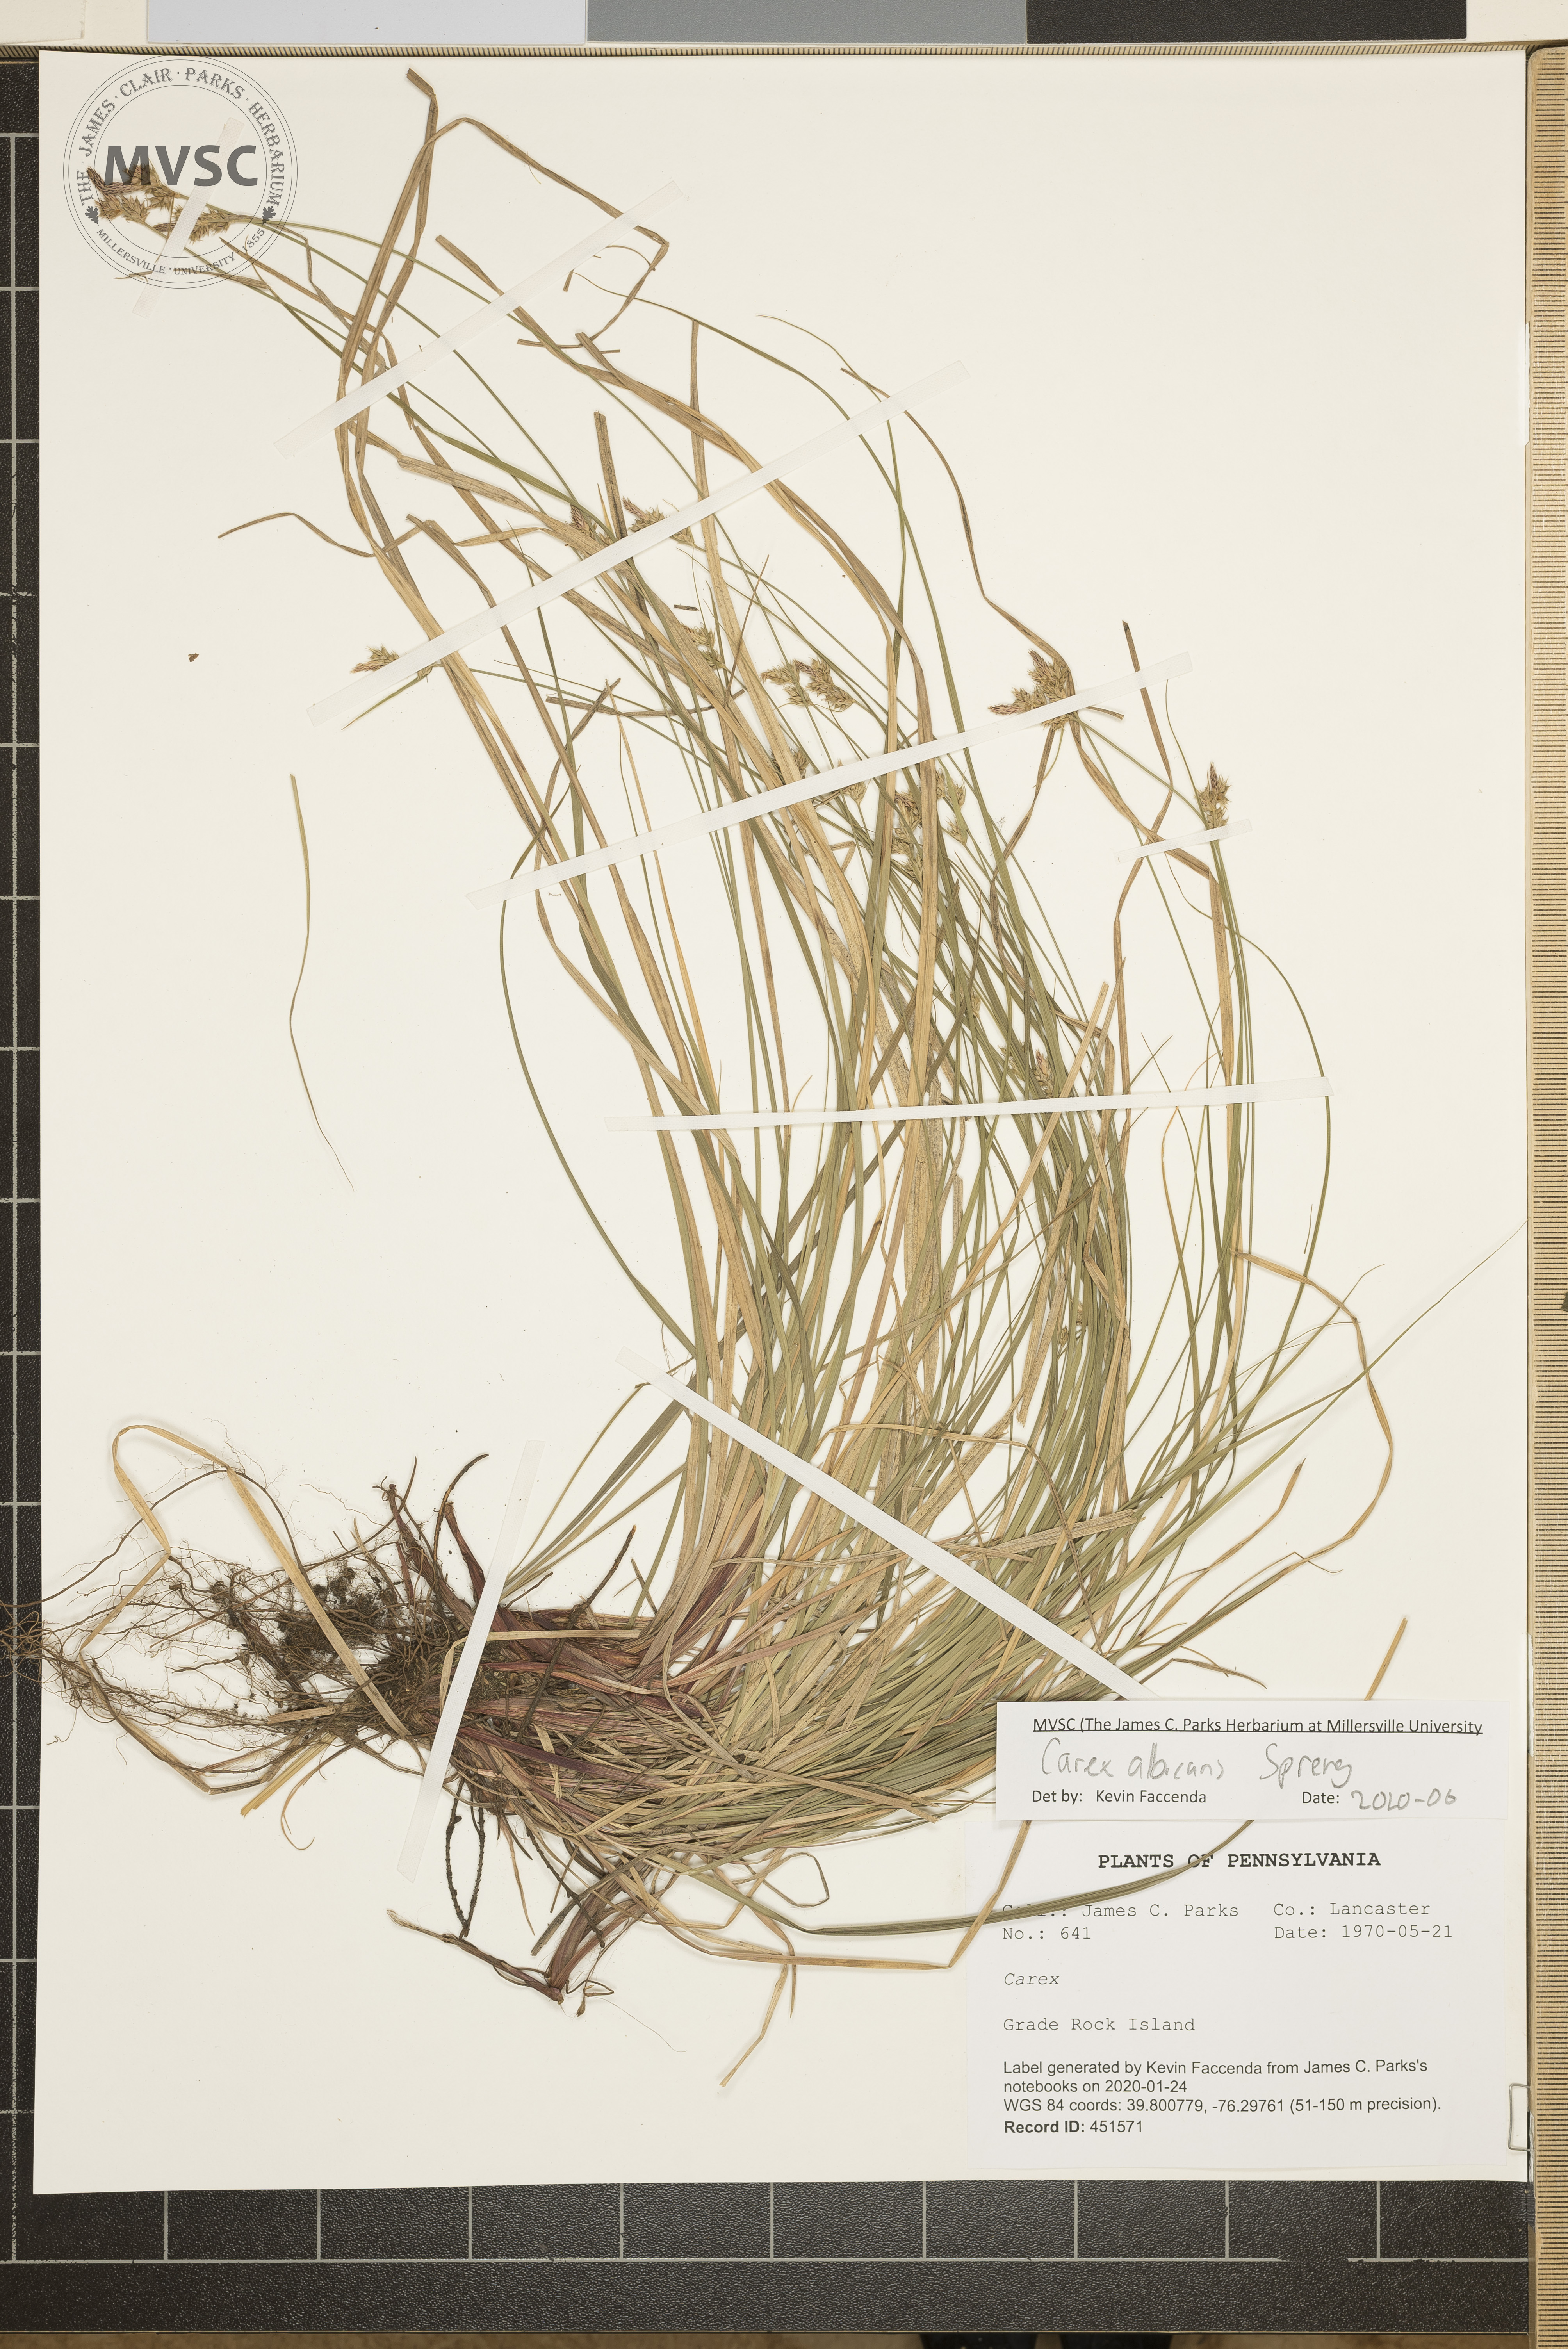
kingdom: Plantae
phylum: Tracheophyta
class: Liliopsida
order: Poales
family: Cyperaceae
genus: Carex
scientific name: Carex albicans
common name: Bellow-beaked sedge
